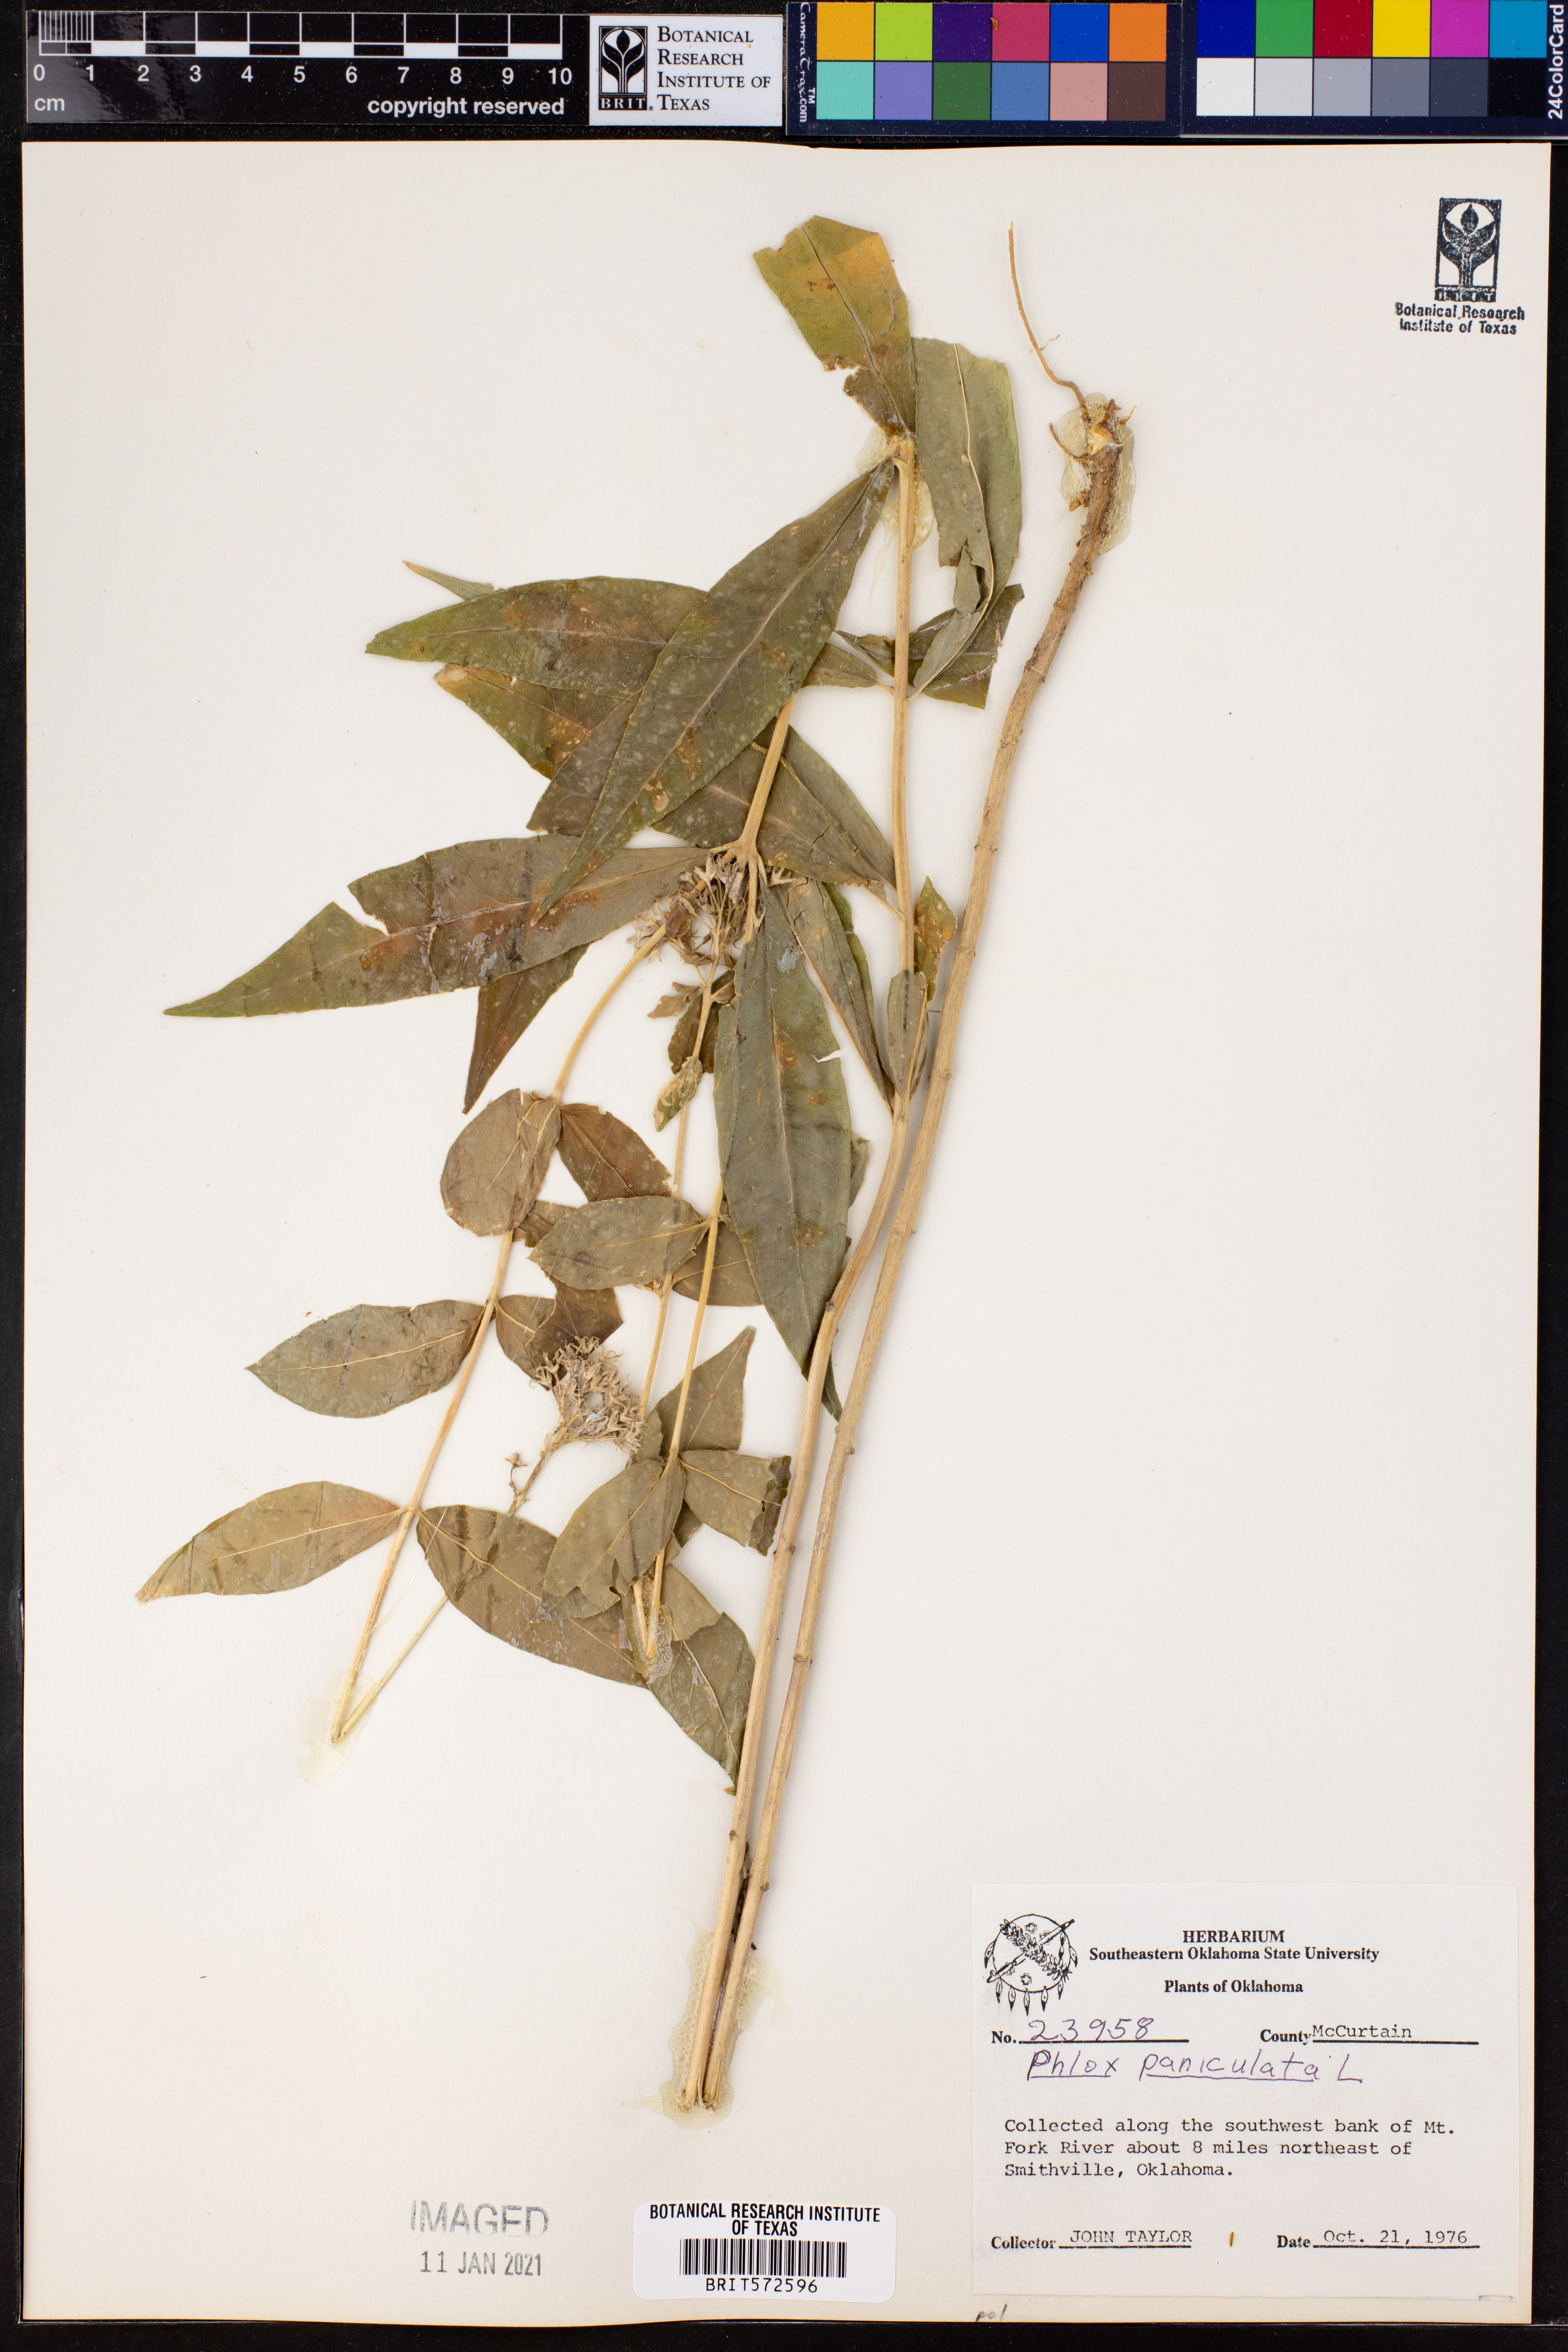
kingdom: Plantae
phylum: Tracheophyta
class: Magnoliopsida
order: Ericales
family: Polemoniaceae
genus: Phlox
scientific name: Phlox paniculata
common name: Fall phlox
